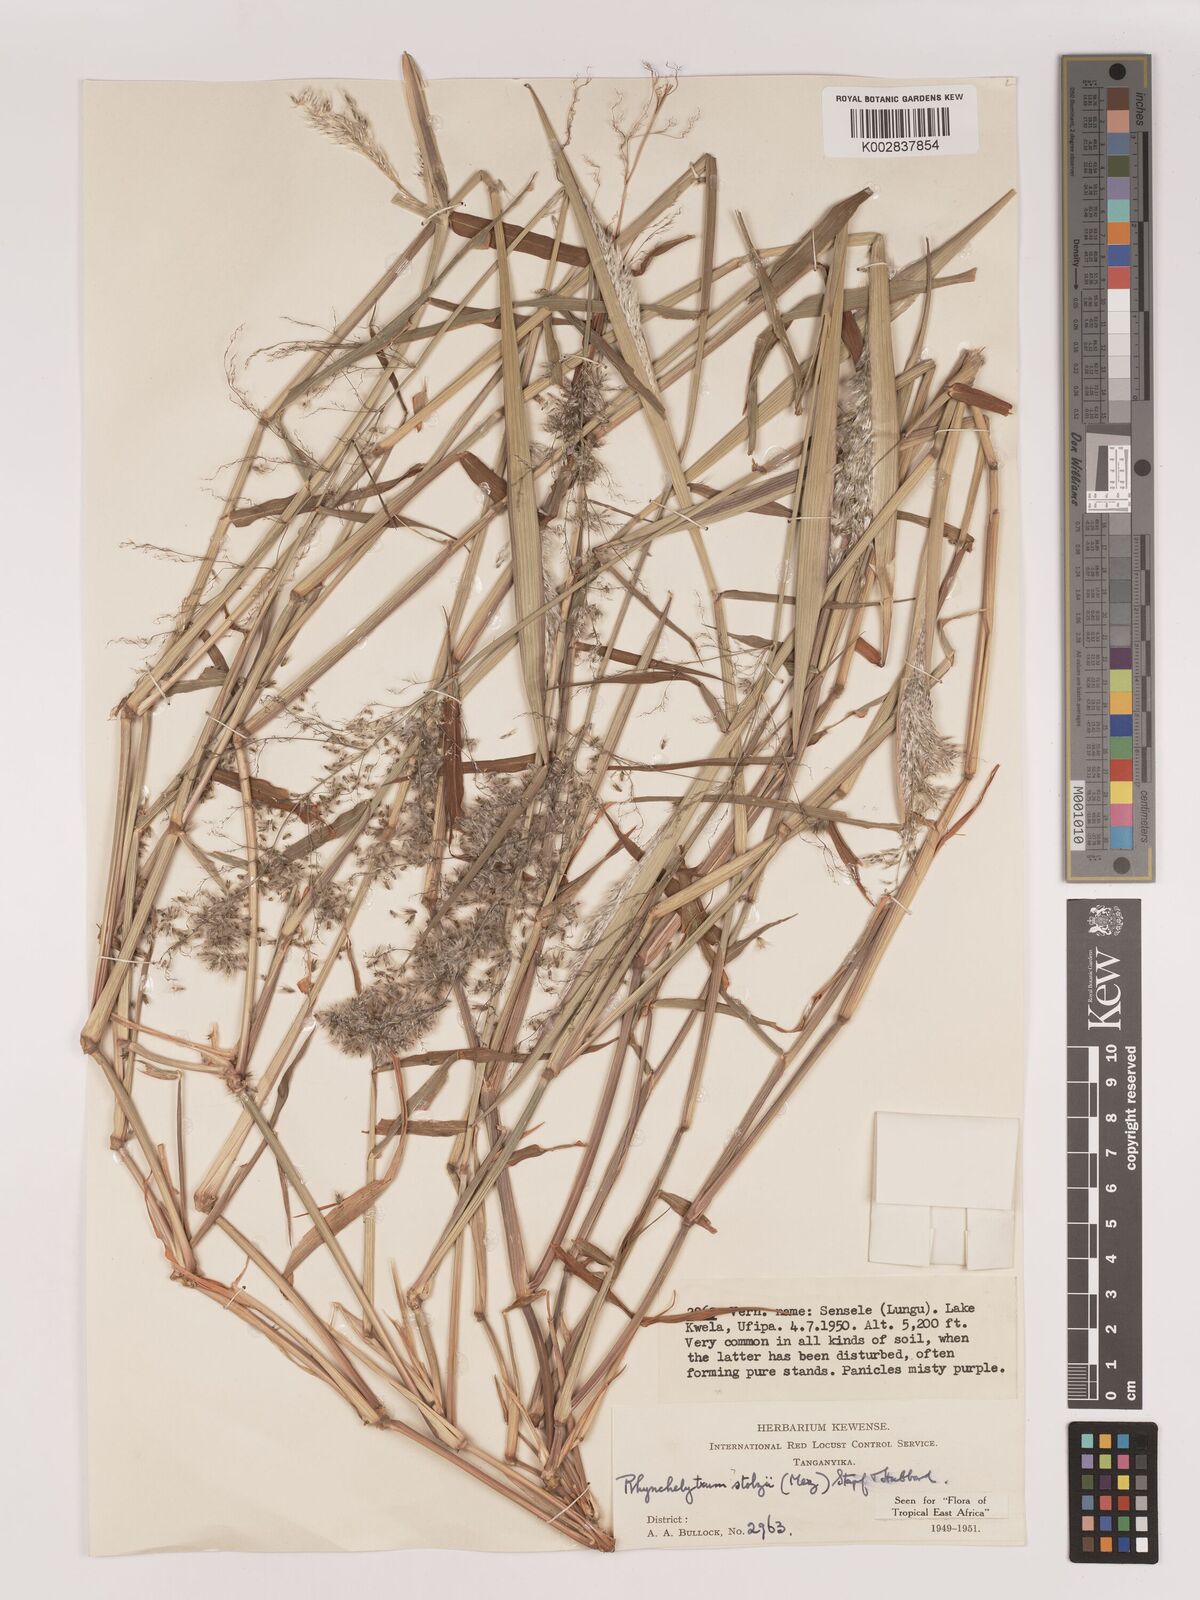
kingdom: Plantae
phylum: Tracheophyta
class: Liliopsida
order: Poales
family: Poaceae
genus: Melinis
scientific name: Melinis repens
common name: Rose natal grass
